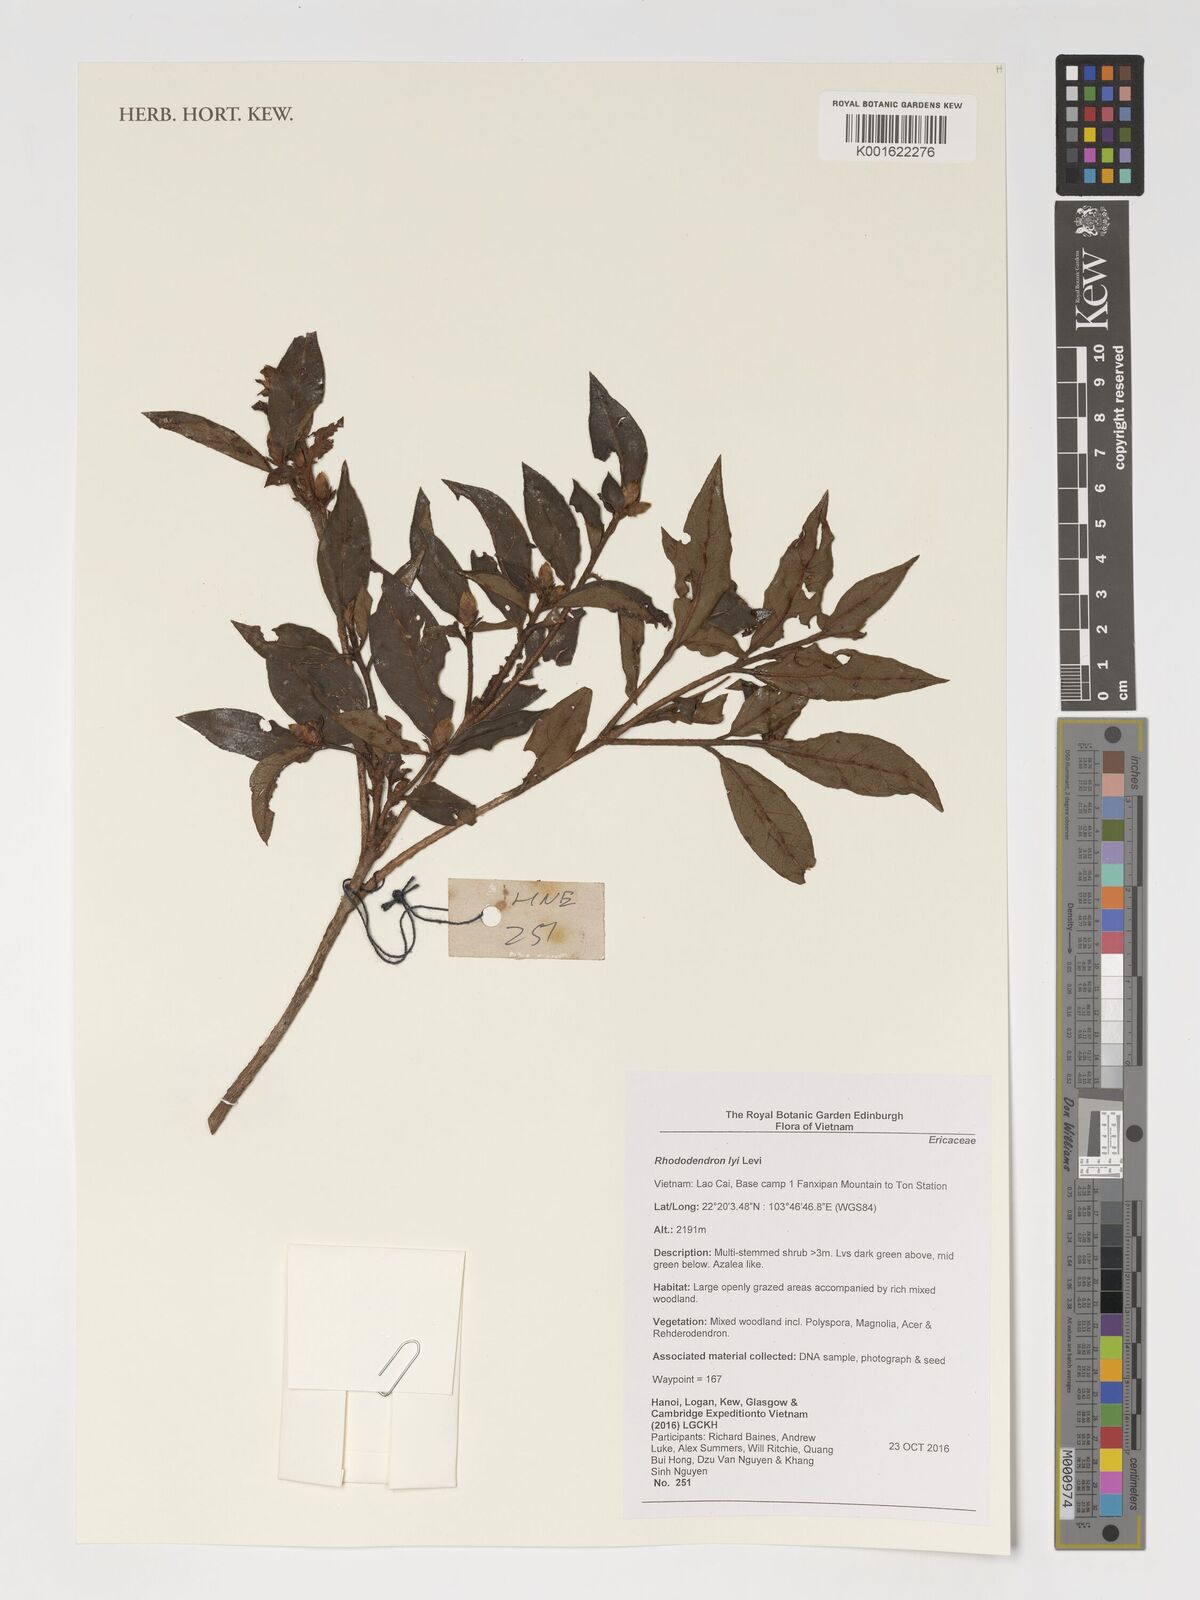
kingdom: Plantae
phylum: Tracheophyta
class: Magnoliopsida
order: Ericales
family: Ericaceae
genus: Rhododendron
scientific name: Rhododendron ciliicalyx
